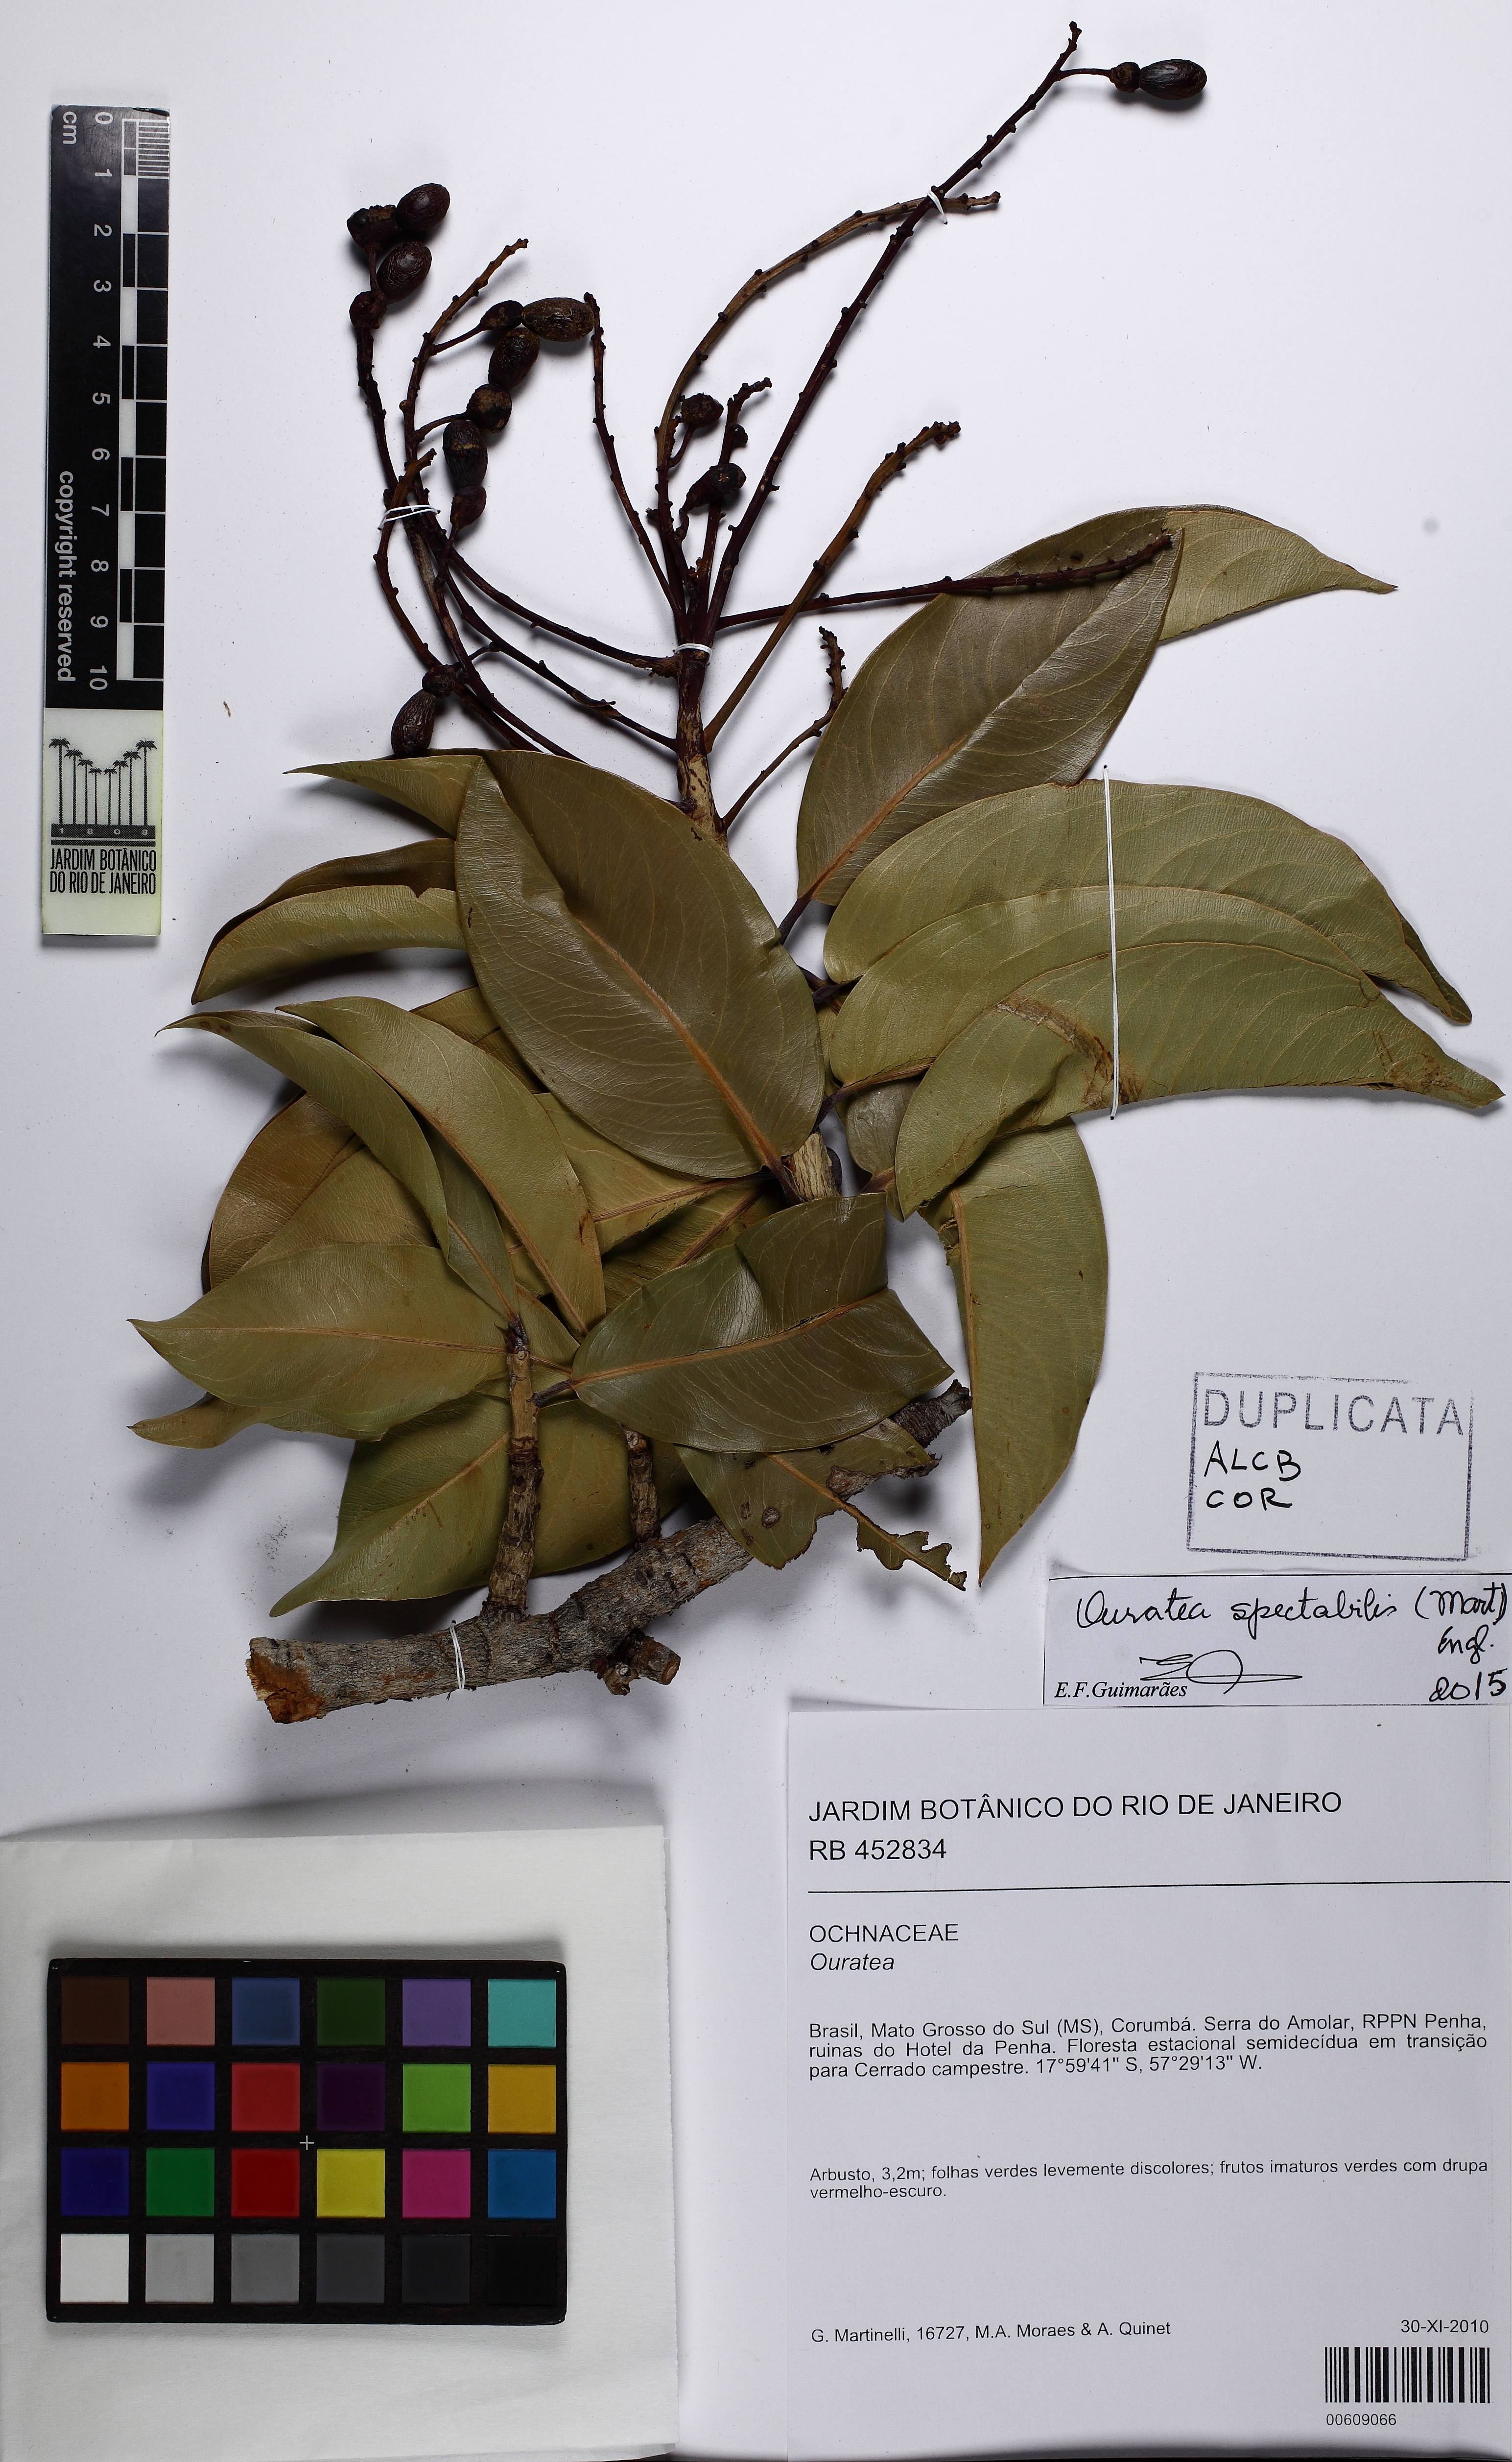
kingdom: Plantae
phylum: Tracheophyta
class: Magnoliopsida
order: Malpighiales
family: Ochnaceae
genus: Ouratea
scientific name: Ouratea spectabilis
